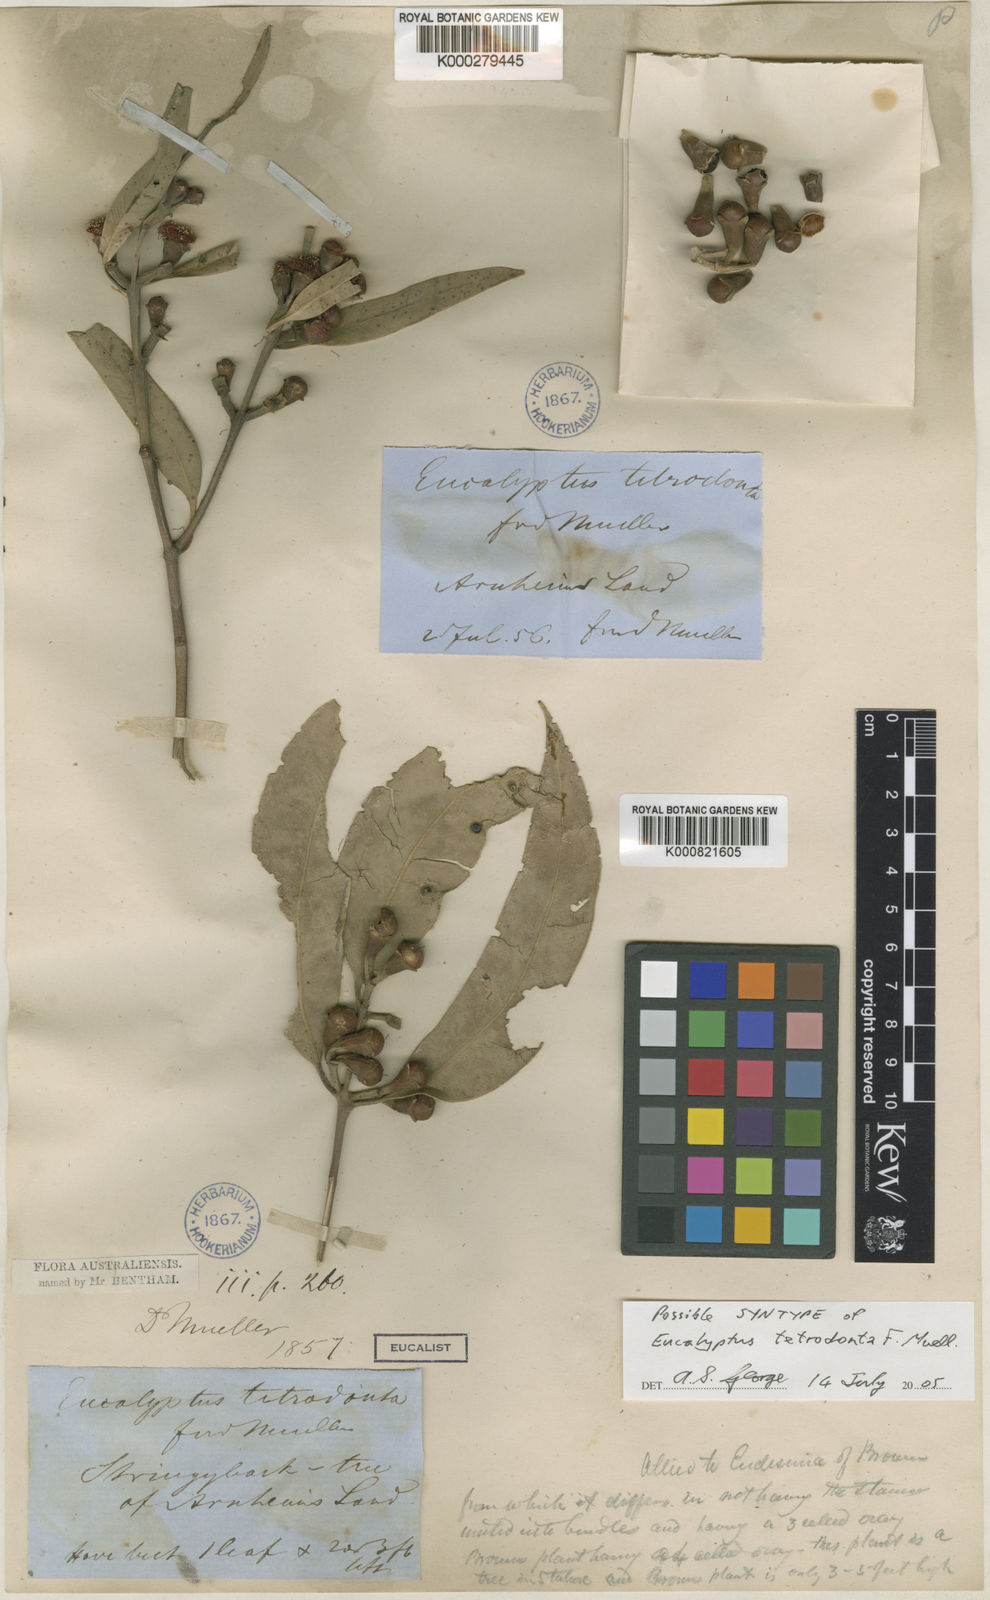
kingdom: Plantae
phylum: Tracheophyta
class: Magnoliopsida
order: Myrtales
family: Myrtaceae
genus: Eucalyptus
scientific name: Eucalyptus tetrodonta
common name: Darwin-stringybark
